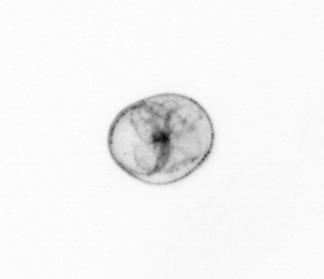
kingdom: Chromista
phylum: Myzozoa
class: Dinophyceae
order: Noctilucales
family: Noctilucaceae
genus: Noctiluca
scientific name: Noctiluca scintillans
